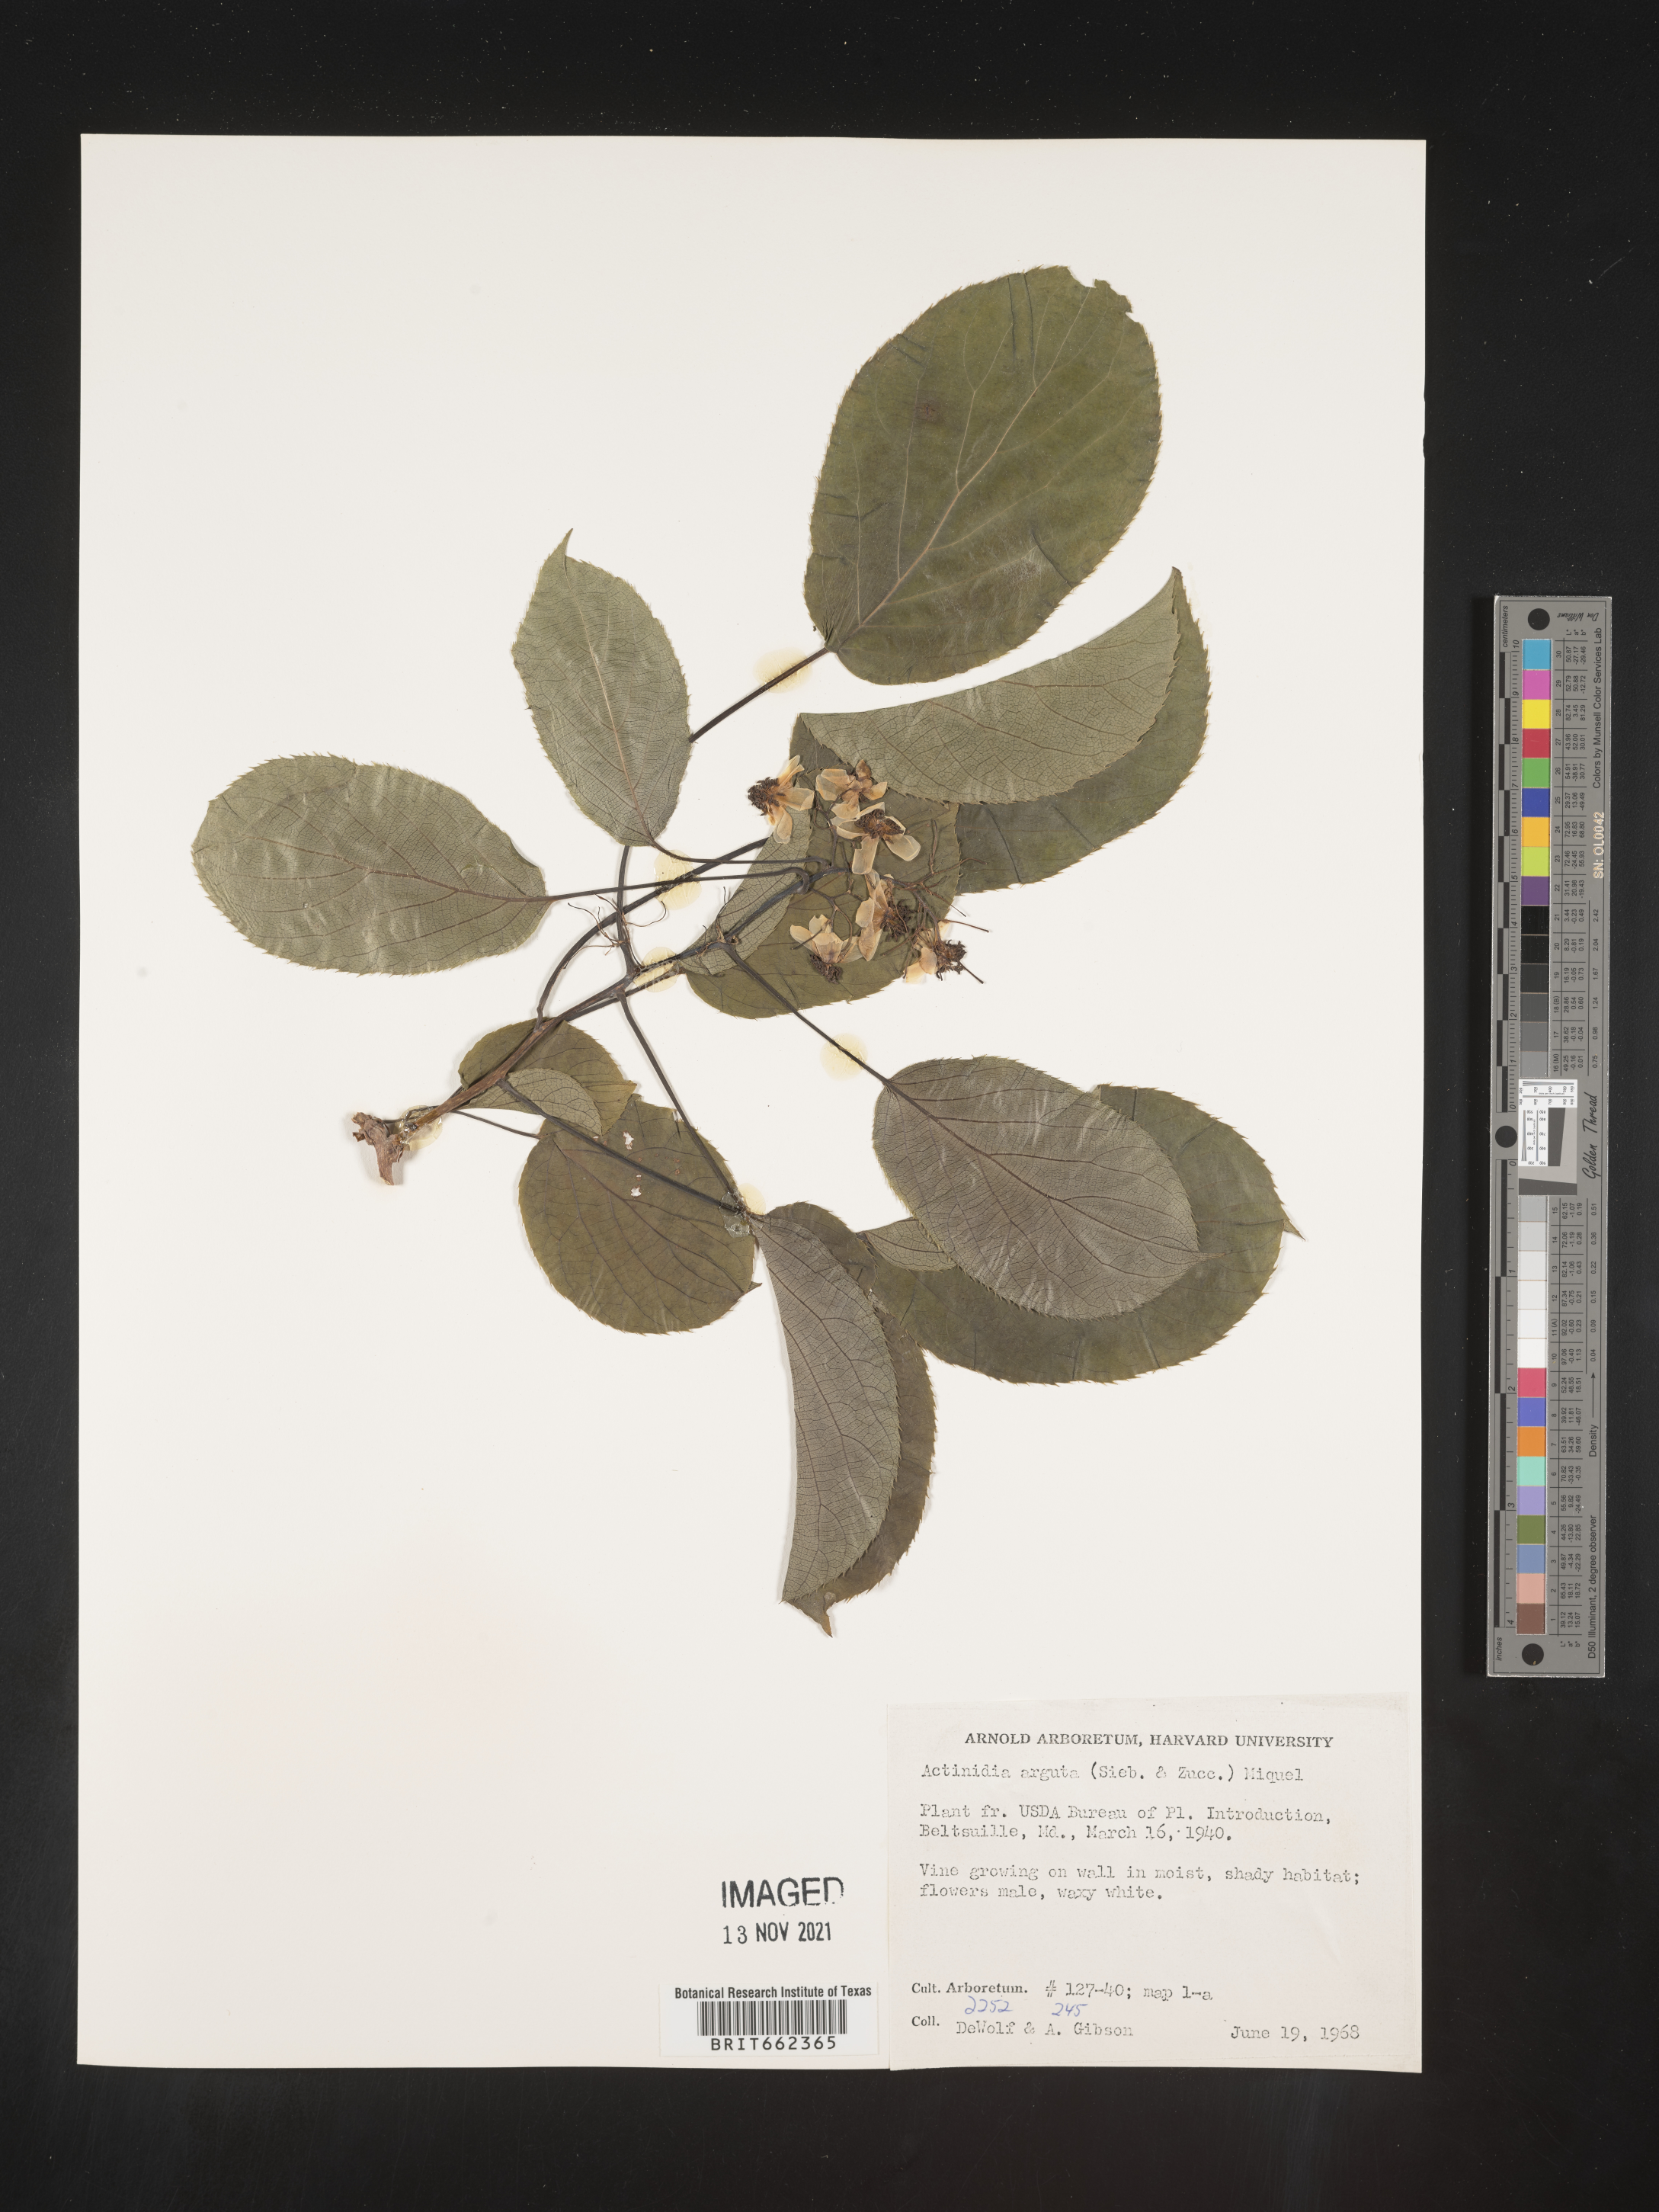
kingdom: Plantae
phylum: Tracheophyta
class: Magnoliopsida
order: Ericales
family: Actinidiaceae
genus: Actinidia
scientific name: Actinidia
